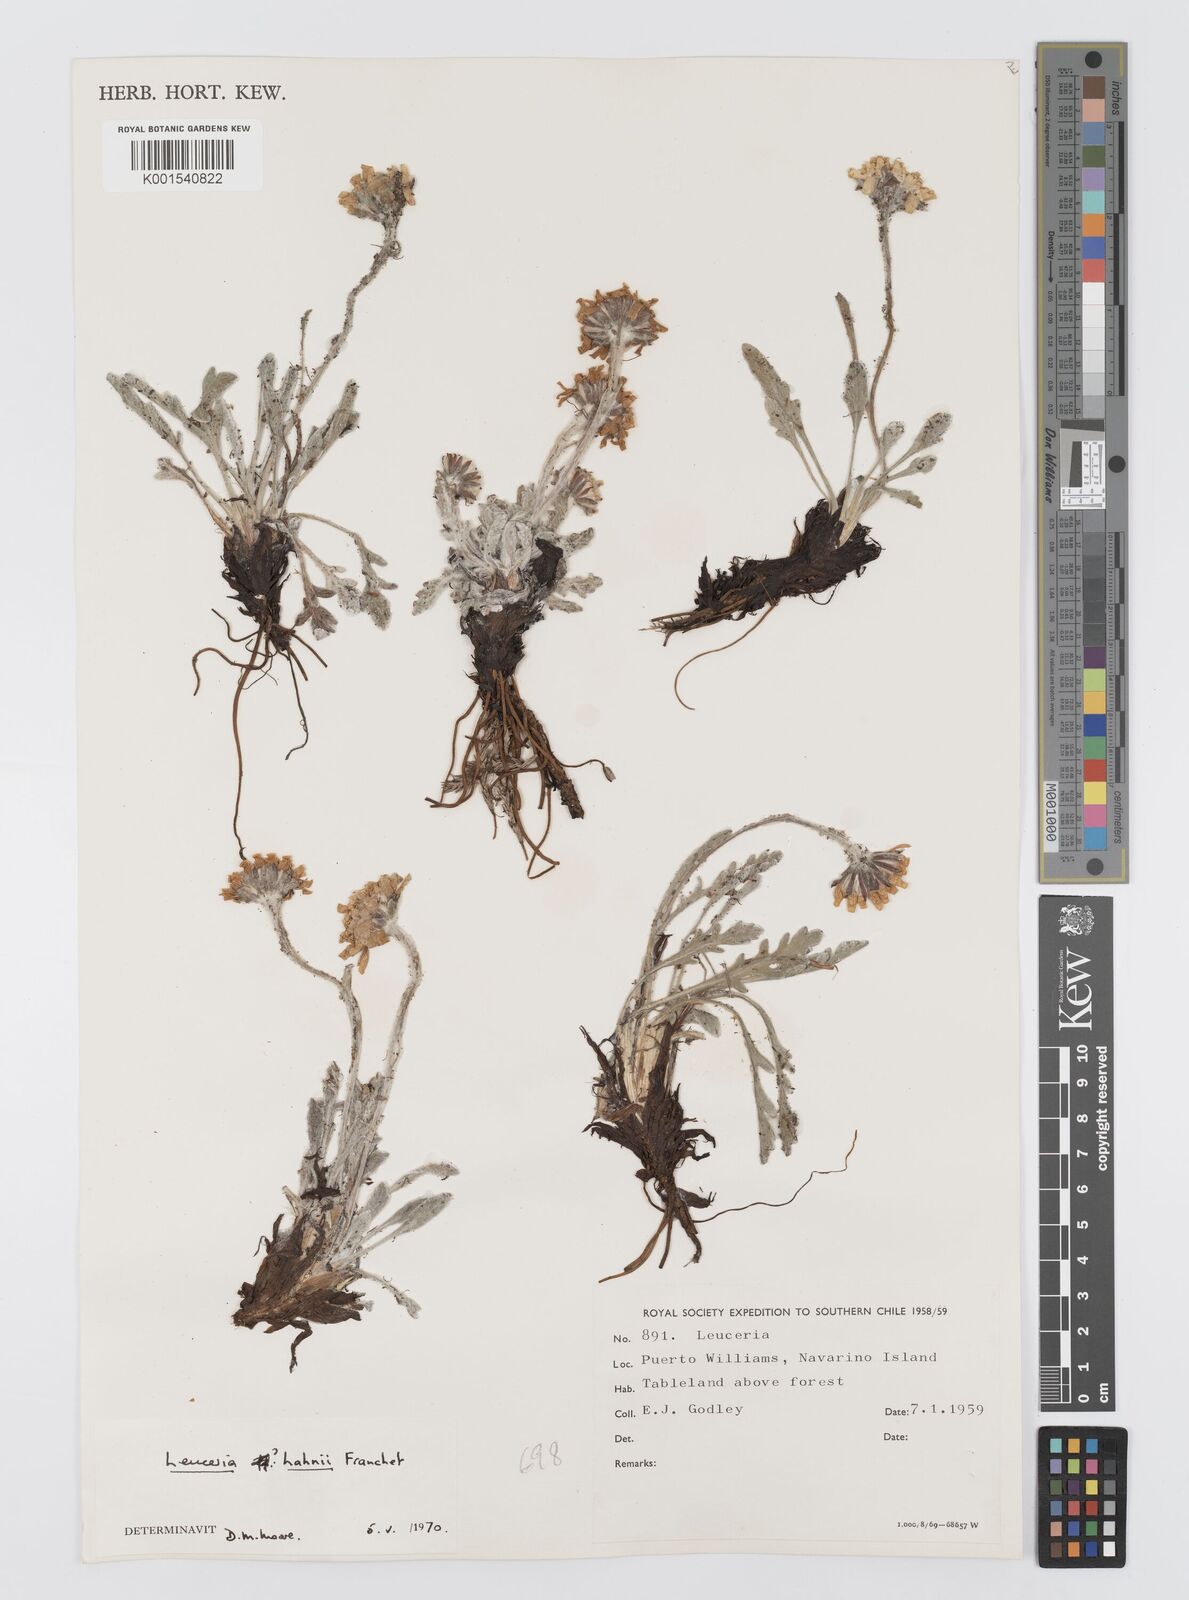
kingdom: Plantae
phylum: Tracheophyta
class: Magnoliopsida
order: Asterales
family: Asteraceae
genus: Leucheria
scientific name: Leucheria hahnii
